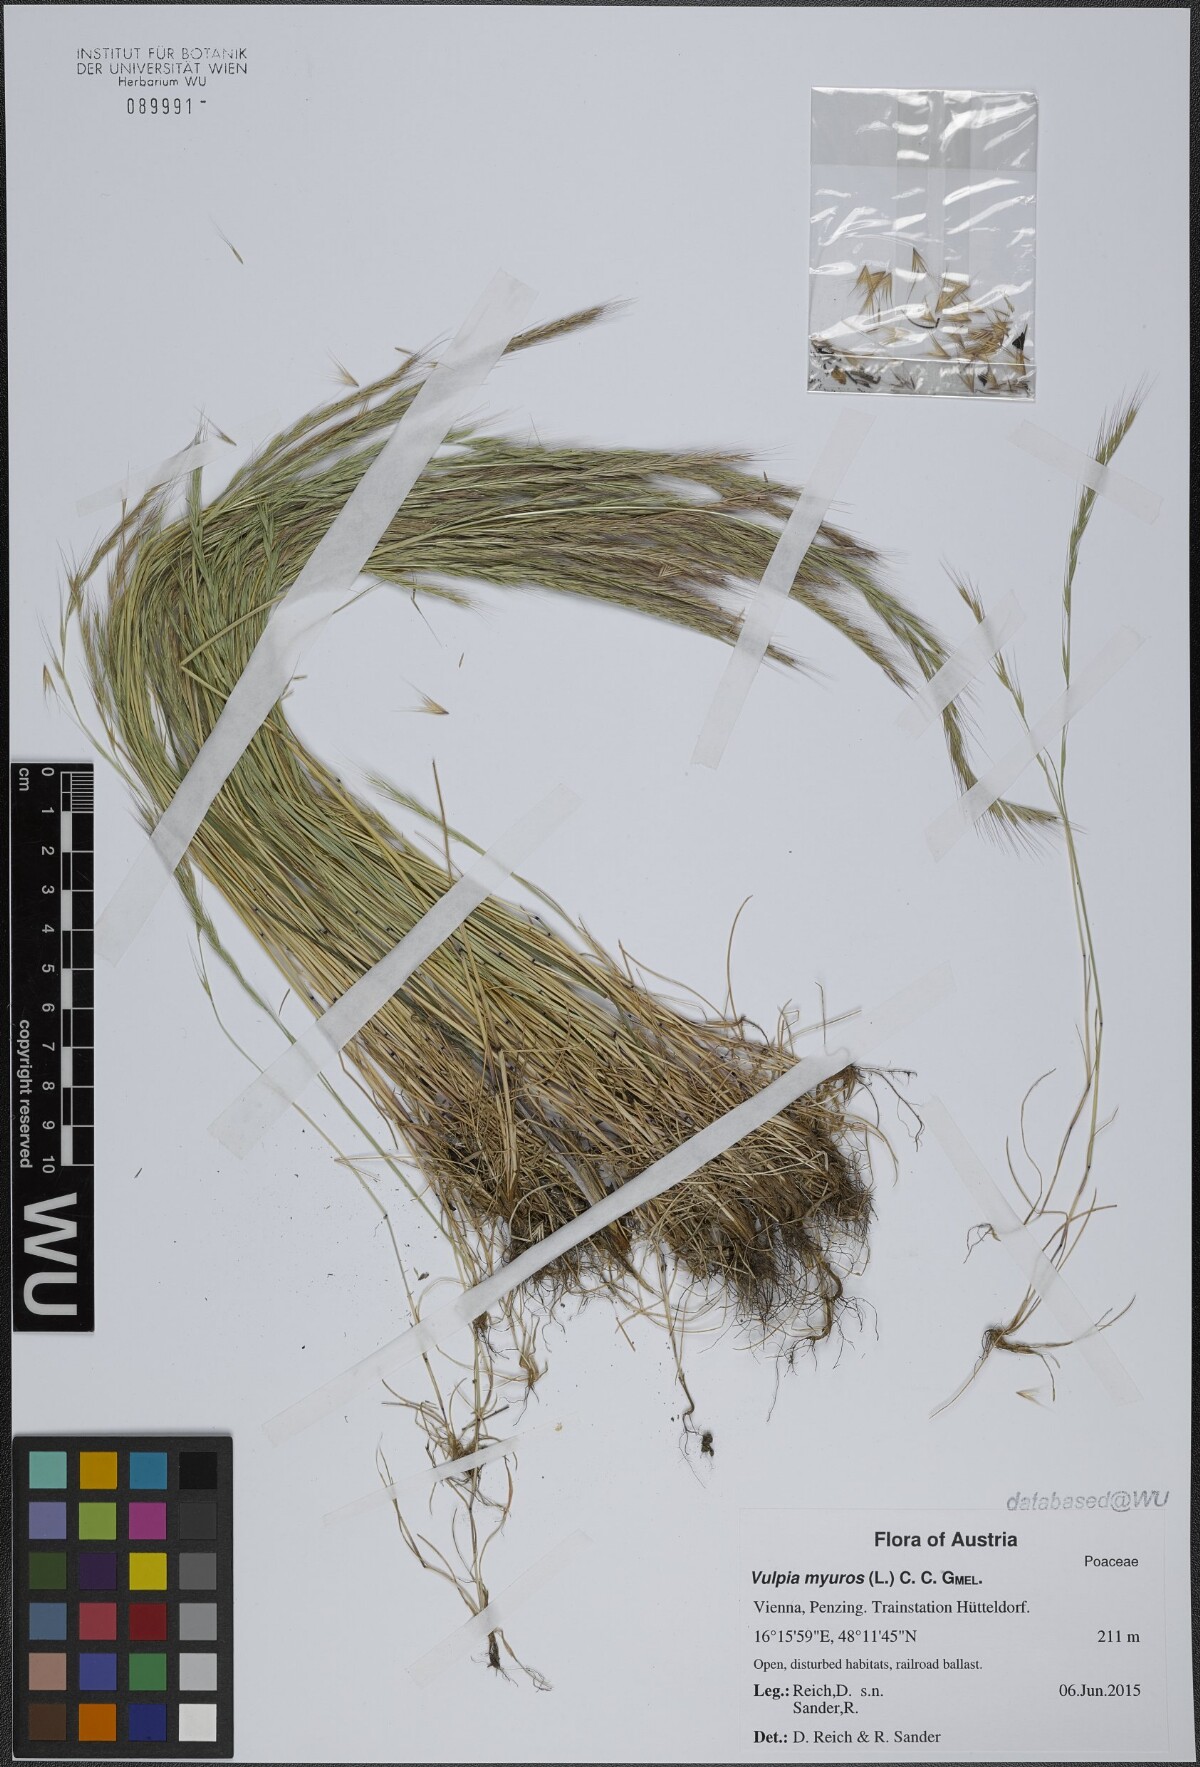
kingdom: Plantae
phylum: Tracheophyta
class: Liliopsida
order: Poales
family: Poaceae
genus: Festuca
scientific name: Festuca myuros
